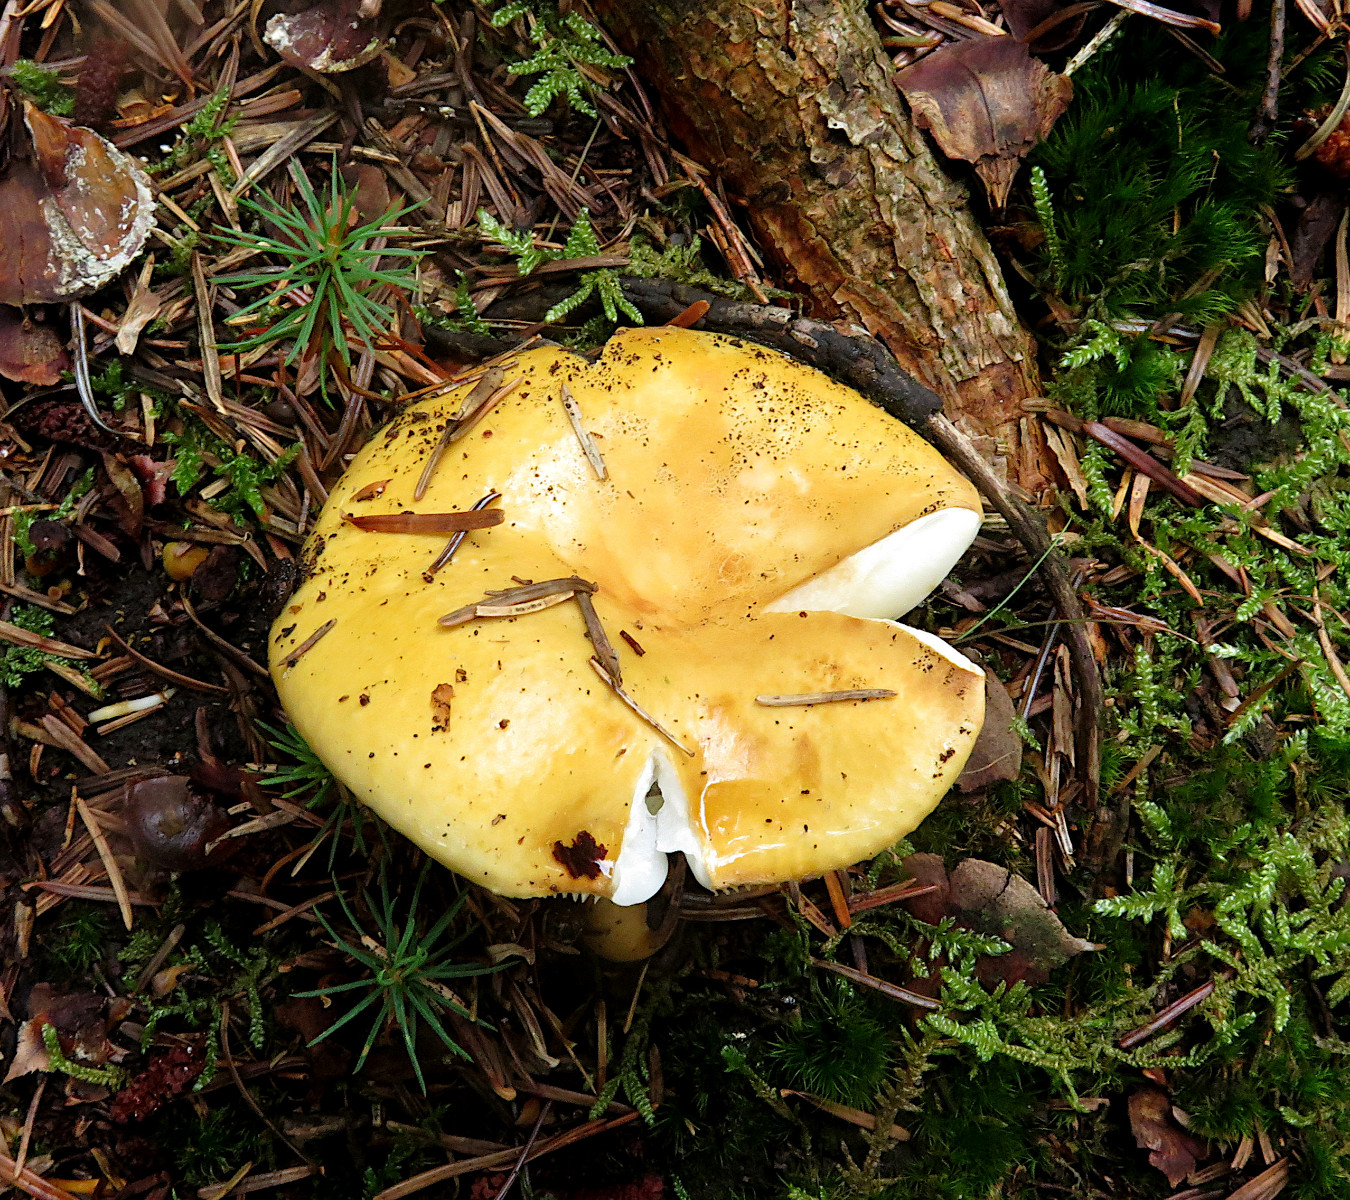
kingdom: Fungi
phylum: Basidiomycota
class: Agaricomycetes
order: Russulales
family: Russulaceae
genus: Russula
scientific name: Russula ochroleuca
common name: okkergul skørhat
